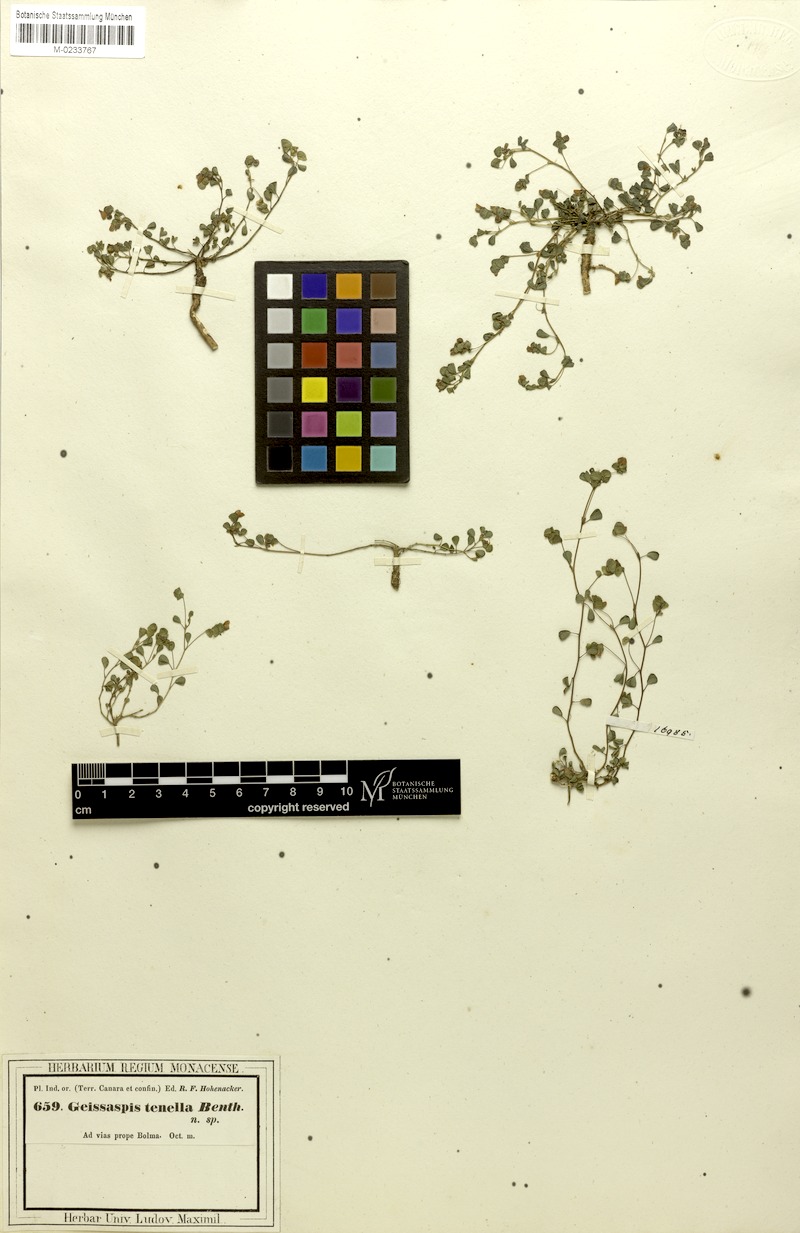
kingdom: Plantae
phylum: Tracheophyta
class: Magnoliopsida
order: Fabales
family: Fabaceae
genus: Geissaspis
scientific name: Geissaspis cristata
